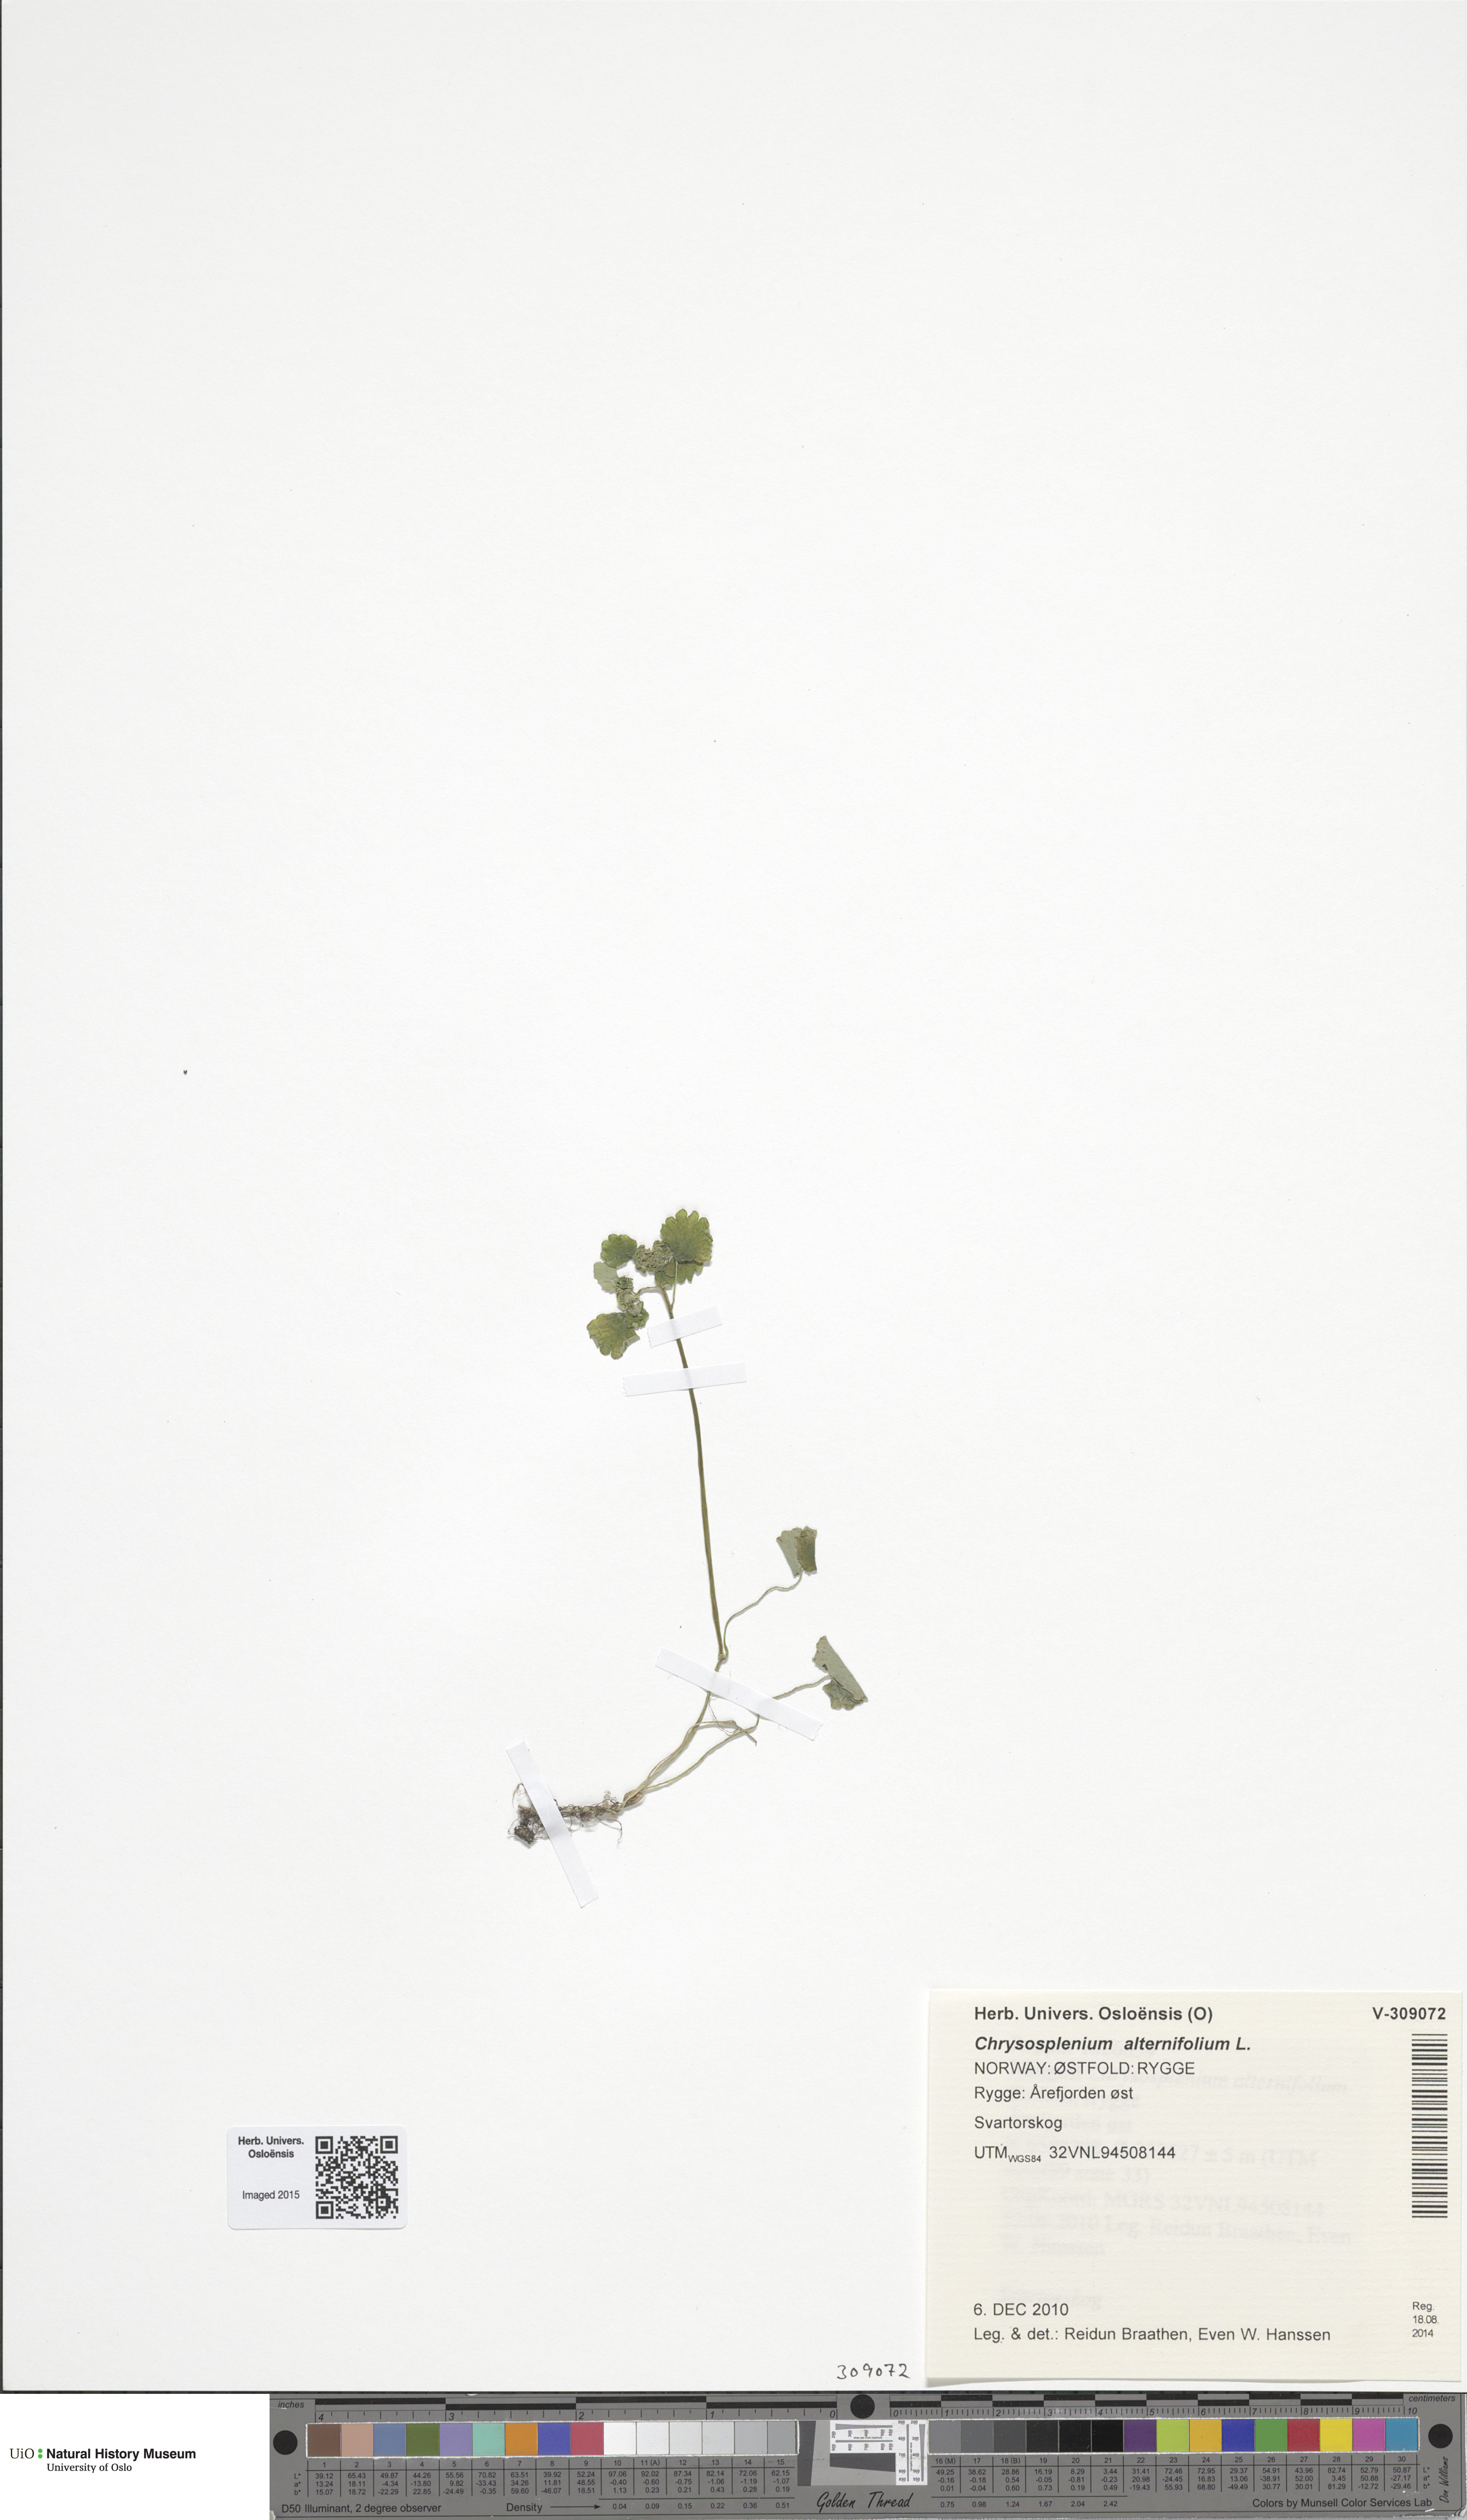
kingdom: Plantae
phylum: Tracheophyta
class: Magnoliopsida
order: Saxifragales
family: Saxifragaceae
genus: Chrysosplenium
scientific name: Chrysosplenium alternifolium
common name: Alternate-leaved golden-saxifrage
